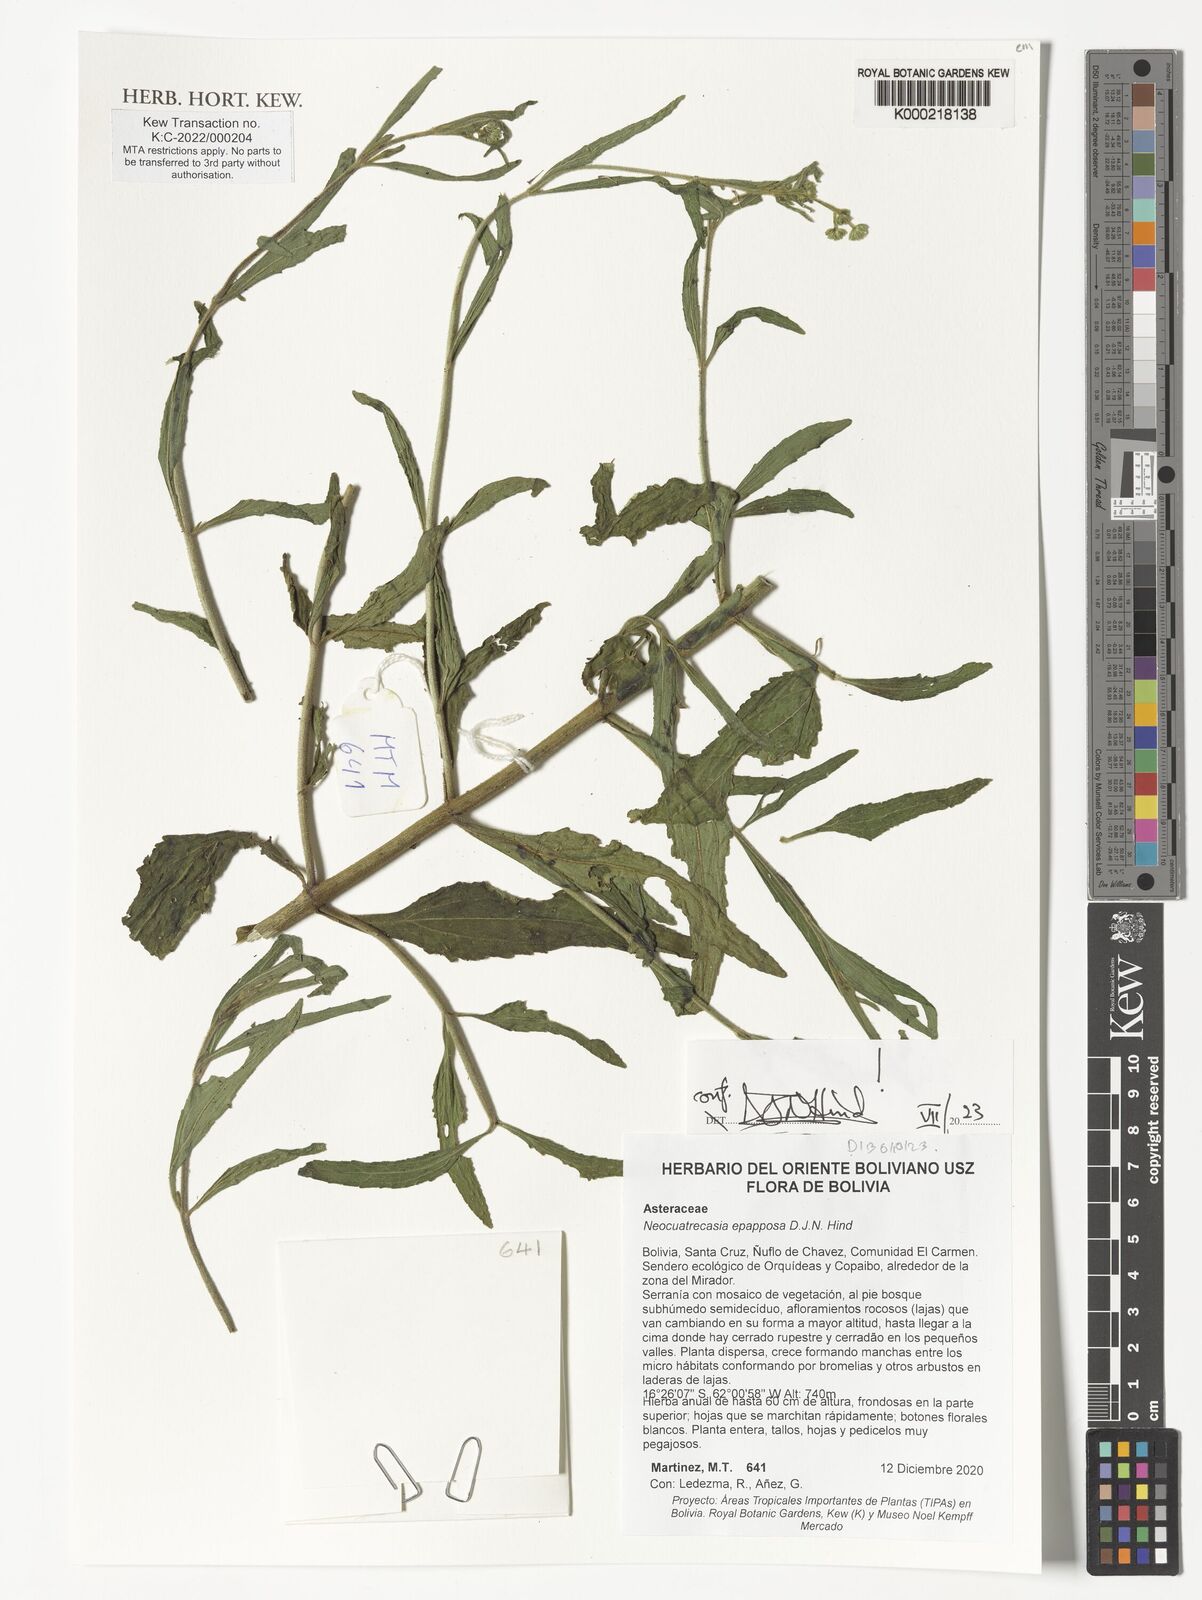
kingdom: Plantae
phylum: Tracheophyta
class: Magnoliopsida
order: Asterales
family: Asteraceae
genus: Neocuatrecasia
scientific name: Neocuatrecasia epapposa
